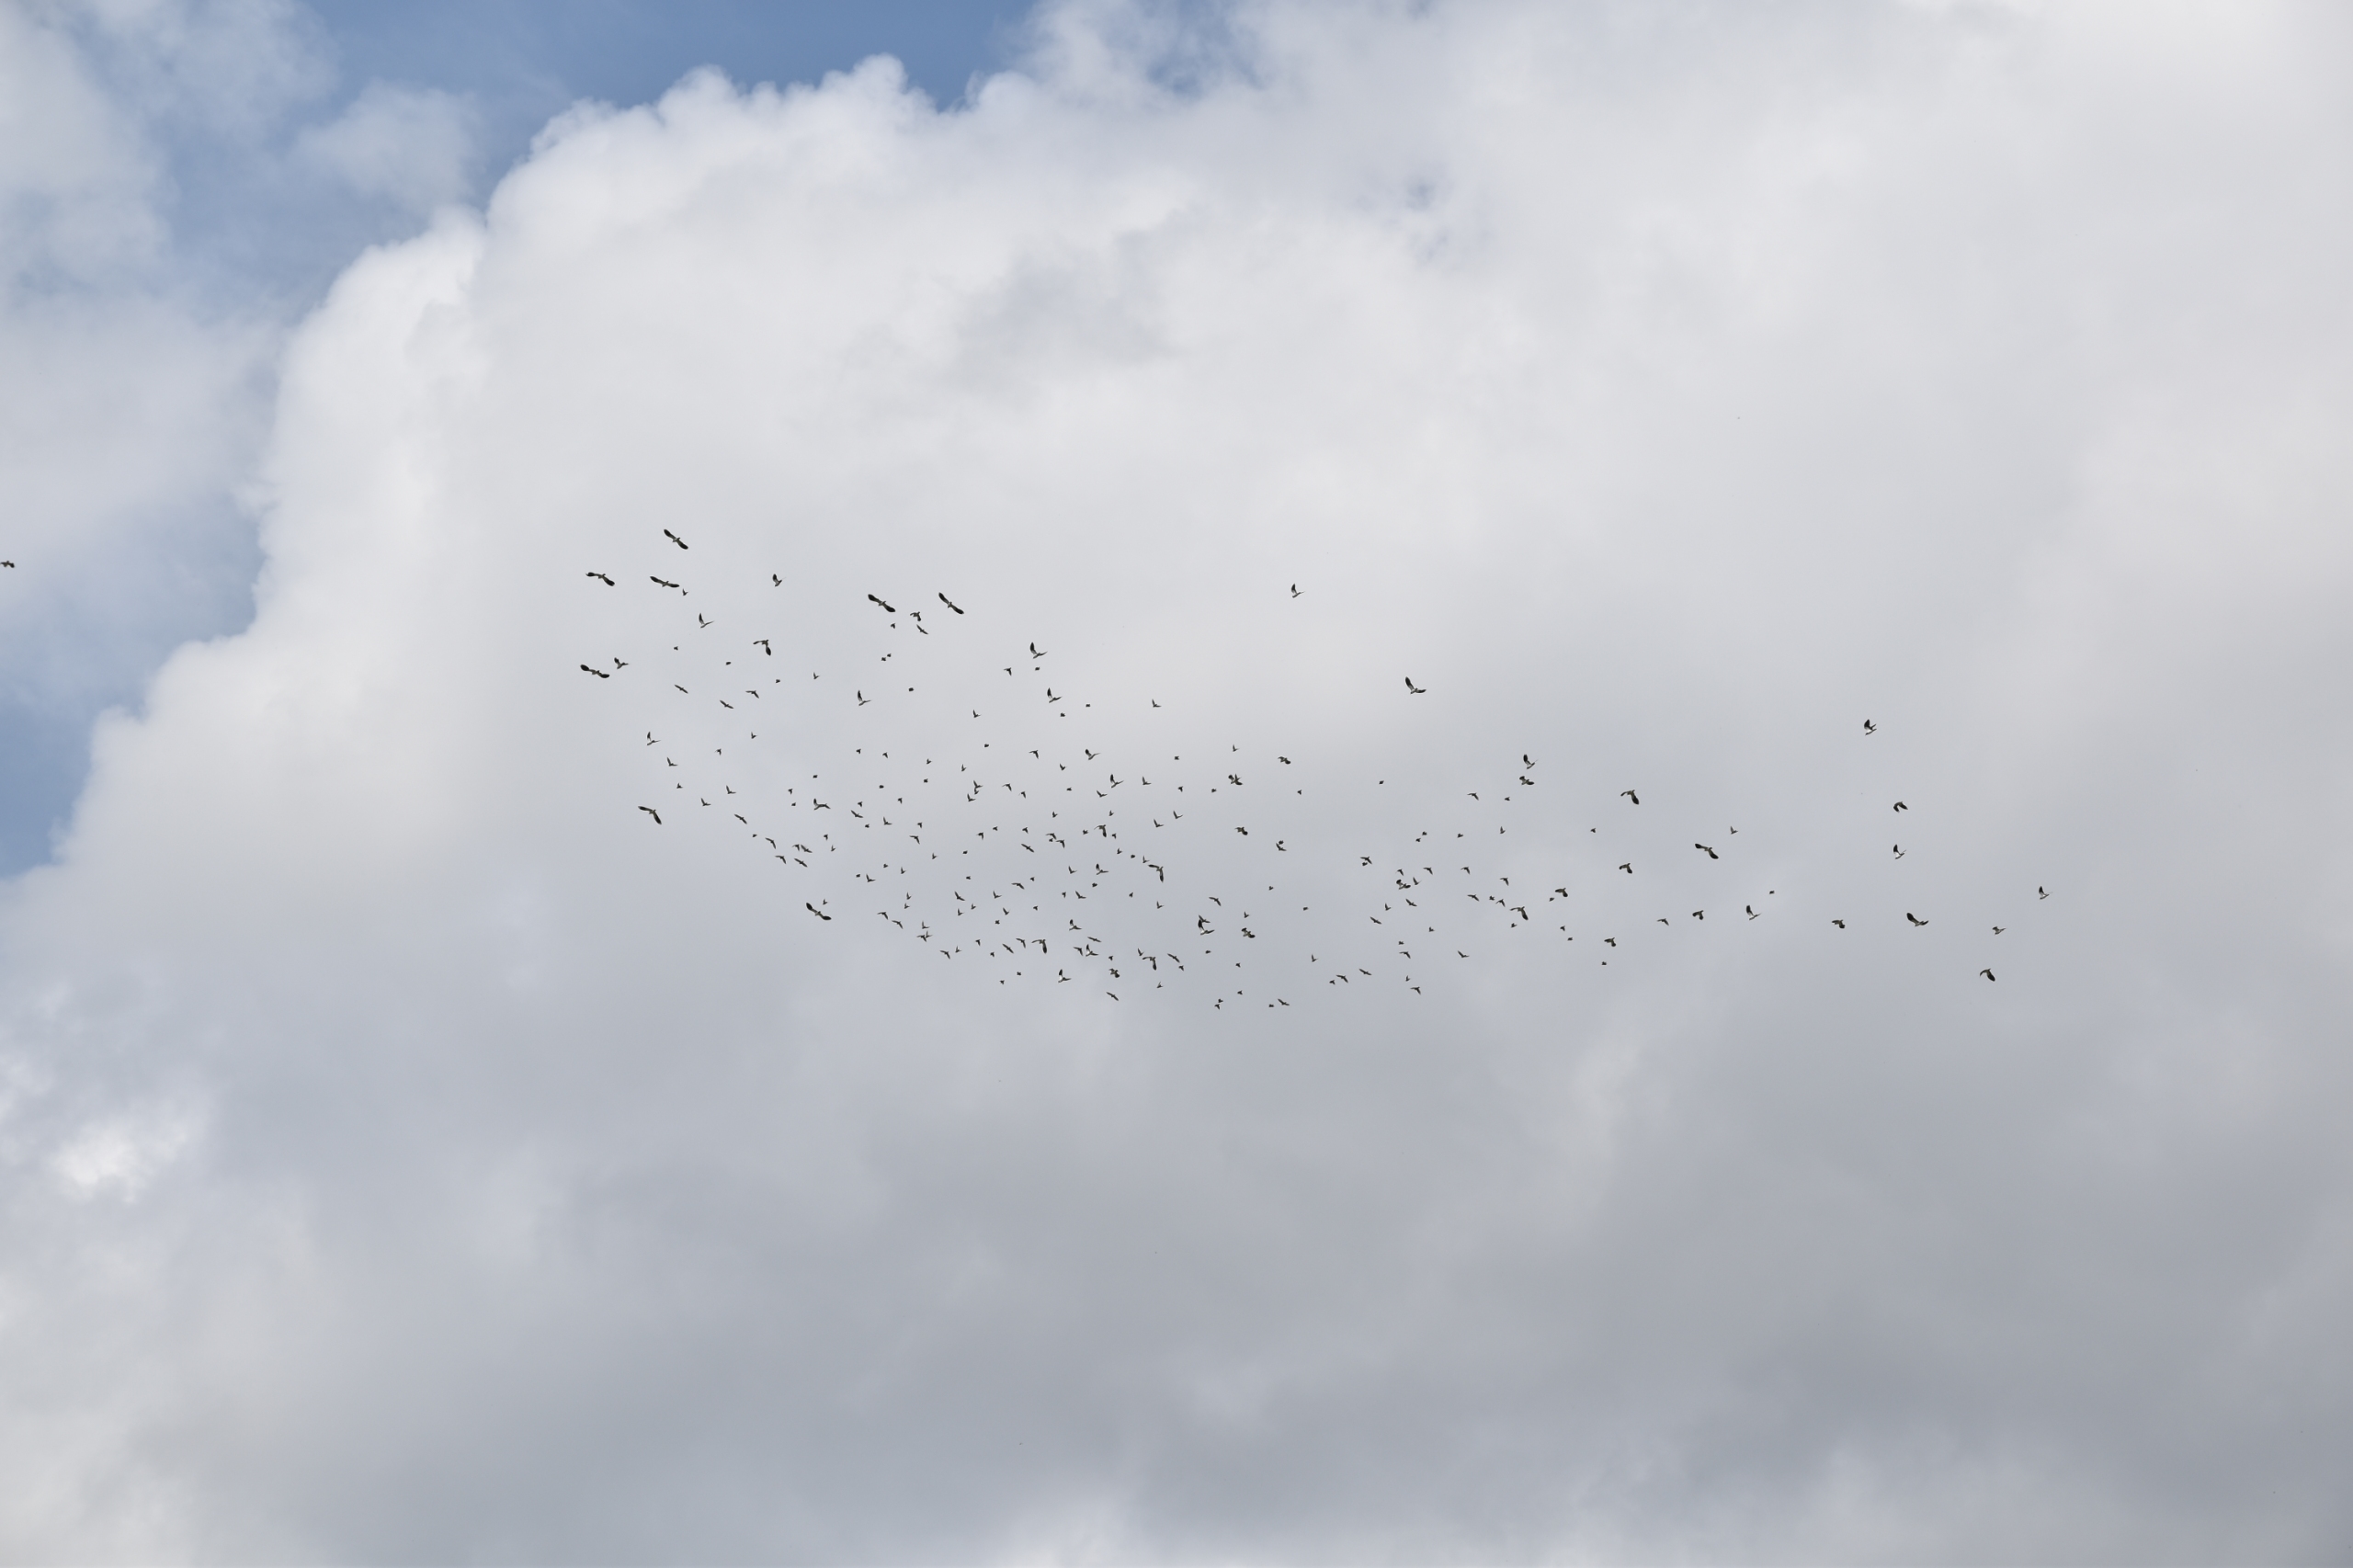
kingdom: Animalia
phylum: Chordata
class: Aves
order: Charadriiformes
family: Charadriidae
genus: Vanellus
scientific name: Vanellus vanellus
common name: Vibe
